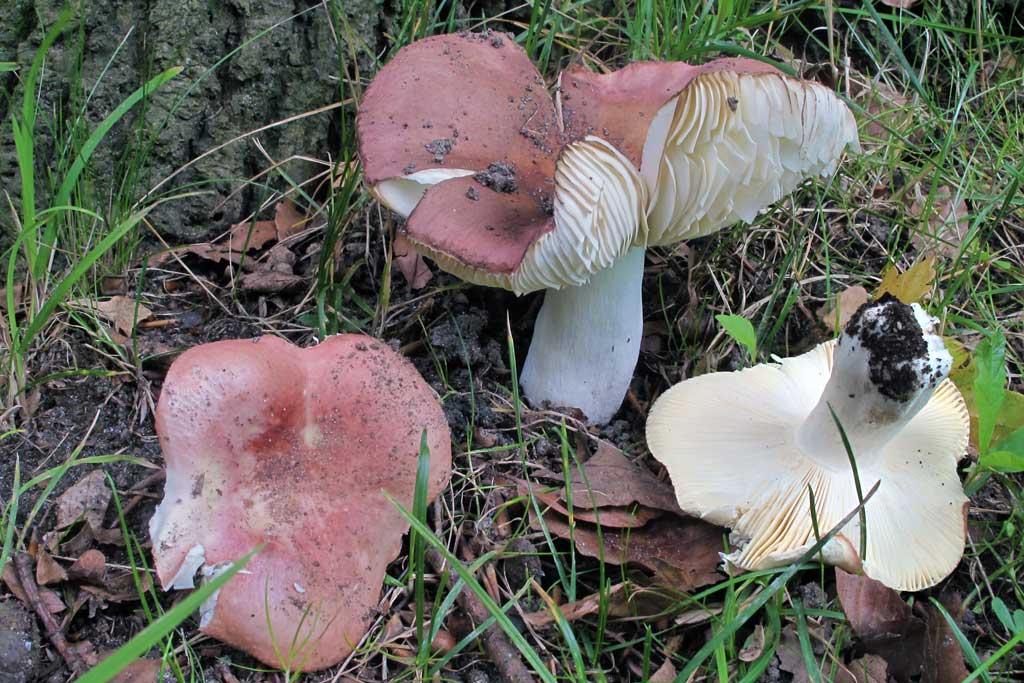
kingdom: Fungi
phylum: Basidiomycota
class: Agaricomycetes
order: Russulales
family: Russulaceae
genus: Russula
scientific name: Russula pseudointegra
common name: cinnoberrød skørhat
